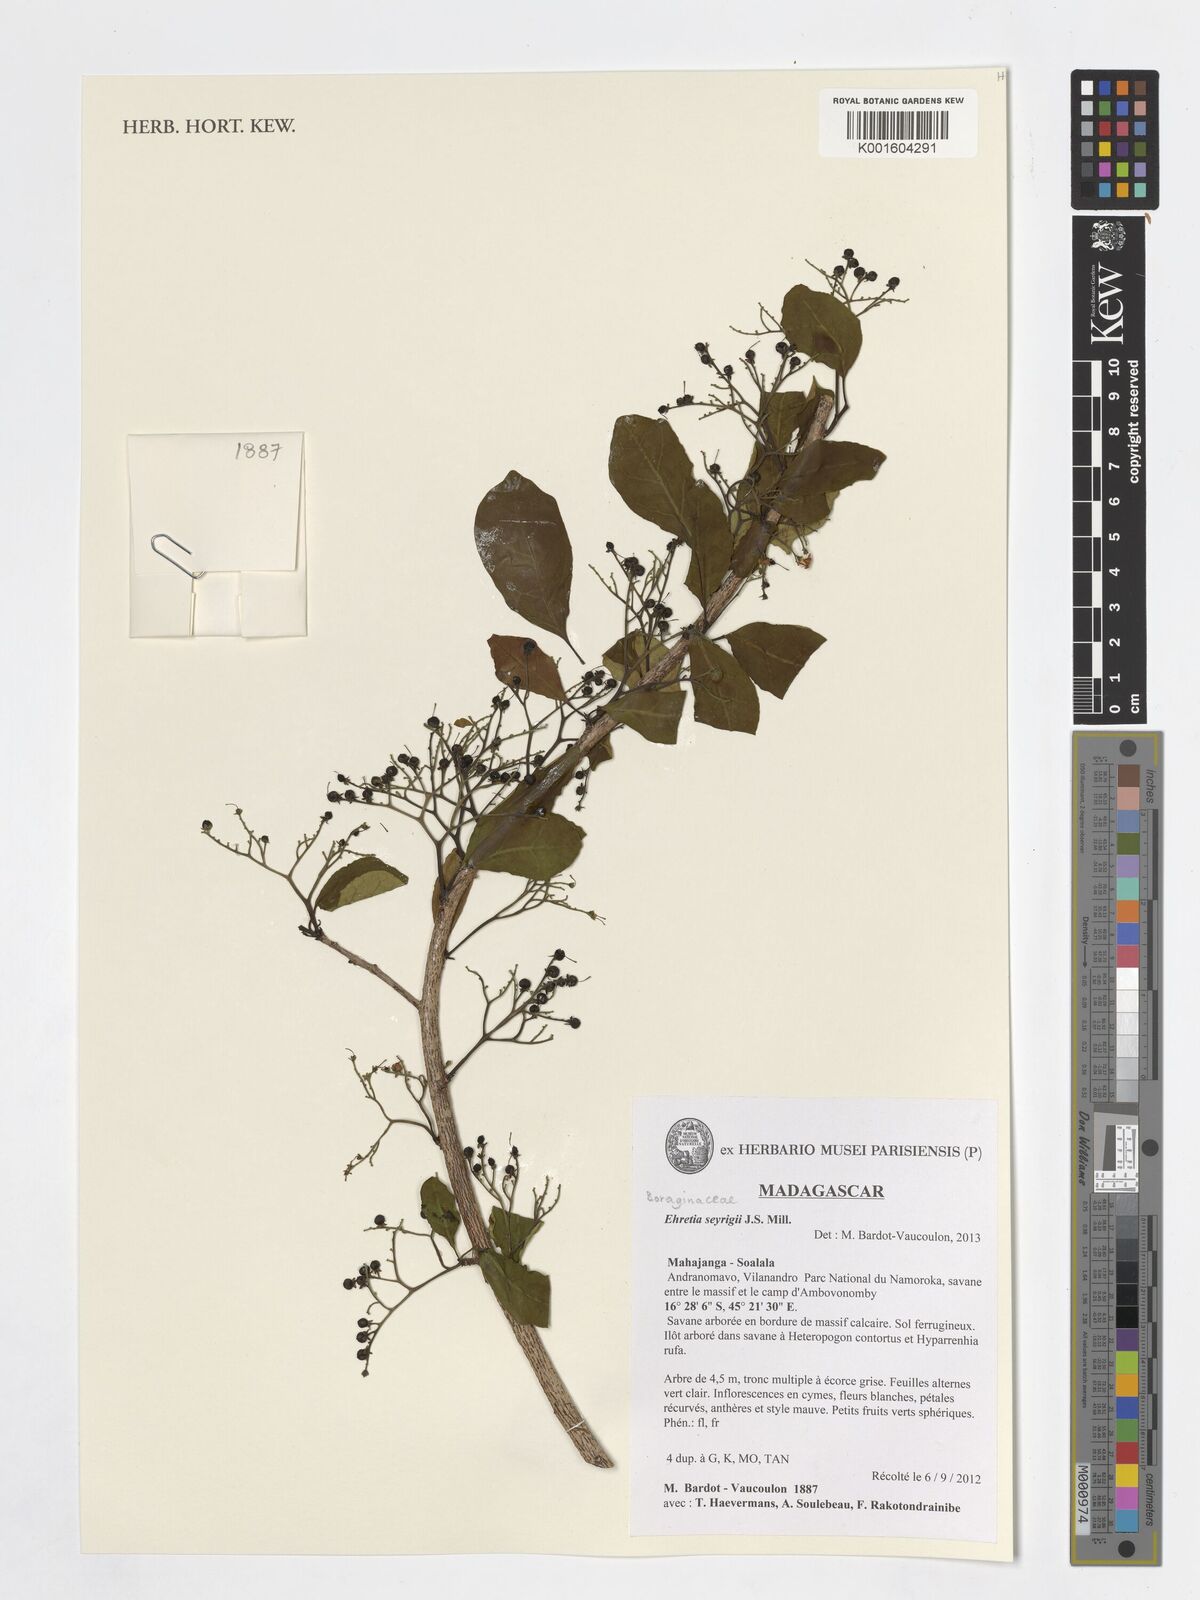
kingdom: Plantae
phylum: Tracheophyta
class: Magnoliopsida
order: Boraginales
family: Ehretiaceae
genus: Ehretia
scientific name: Ehretia seyrigii
